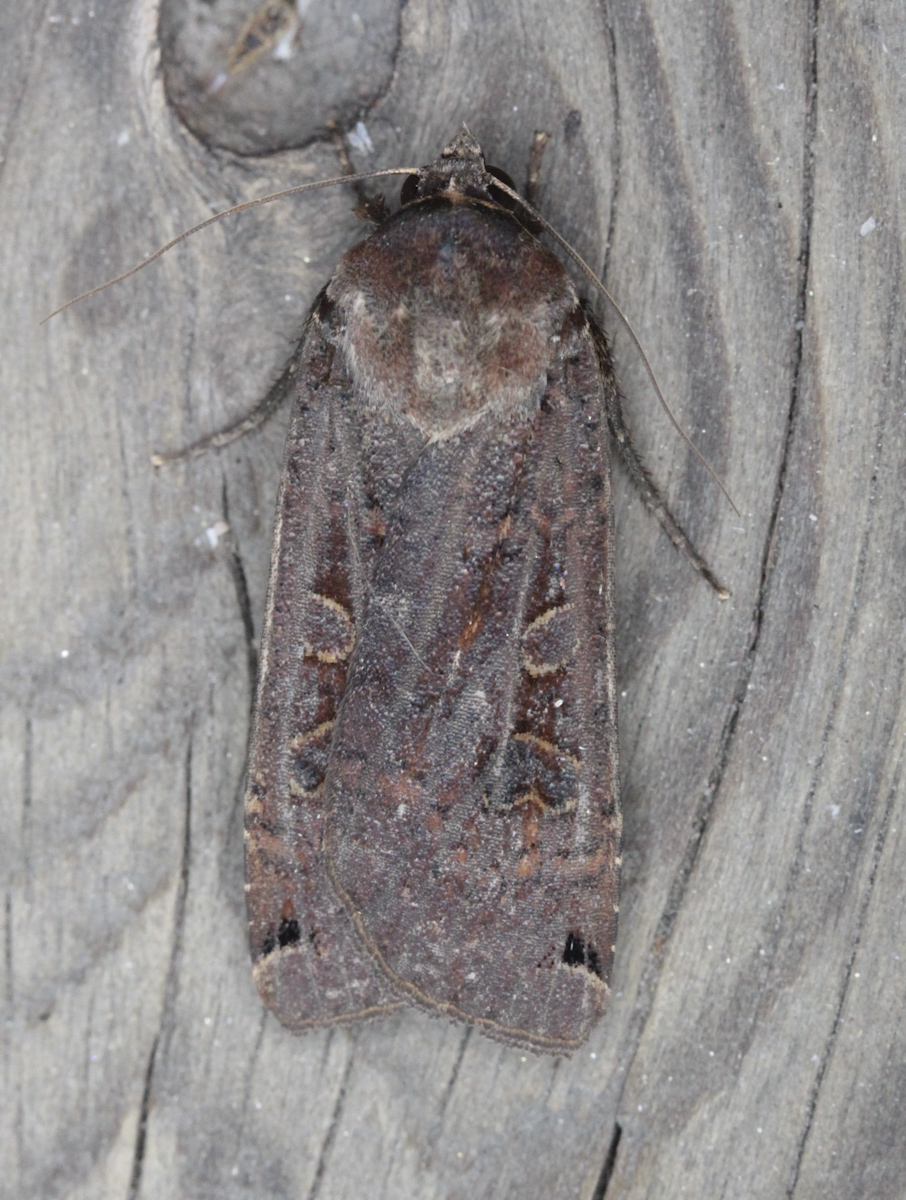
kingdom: Animalia
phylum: Arthropoda
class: Insecta
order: Lepidoptera
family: Noctuidae
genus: Noctua
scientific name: Noctua pronuba
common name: Large yellow underwing
